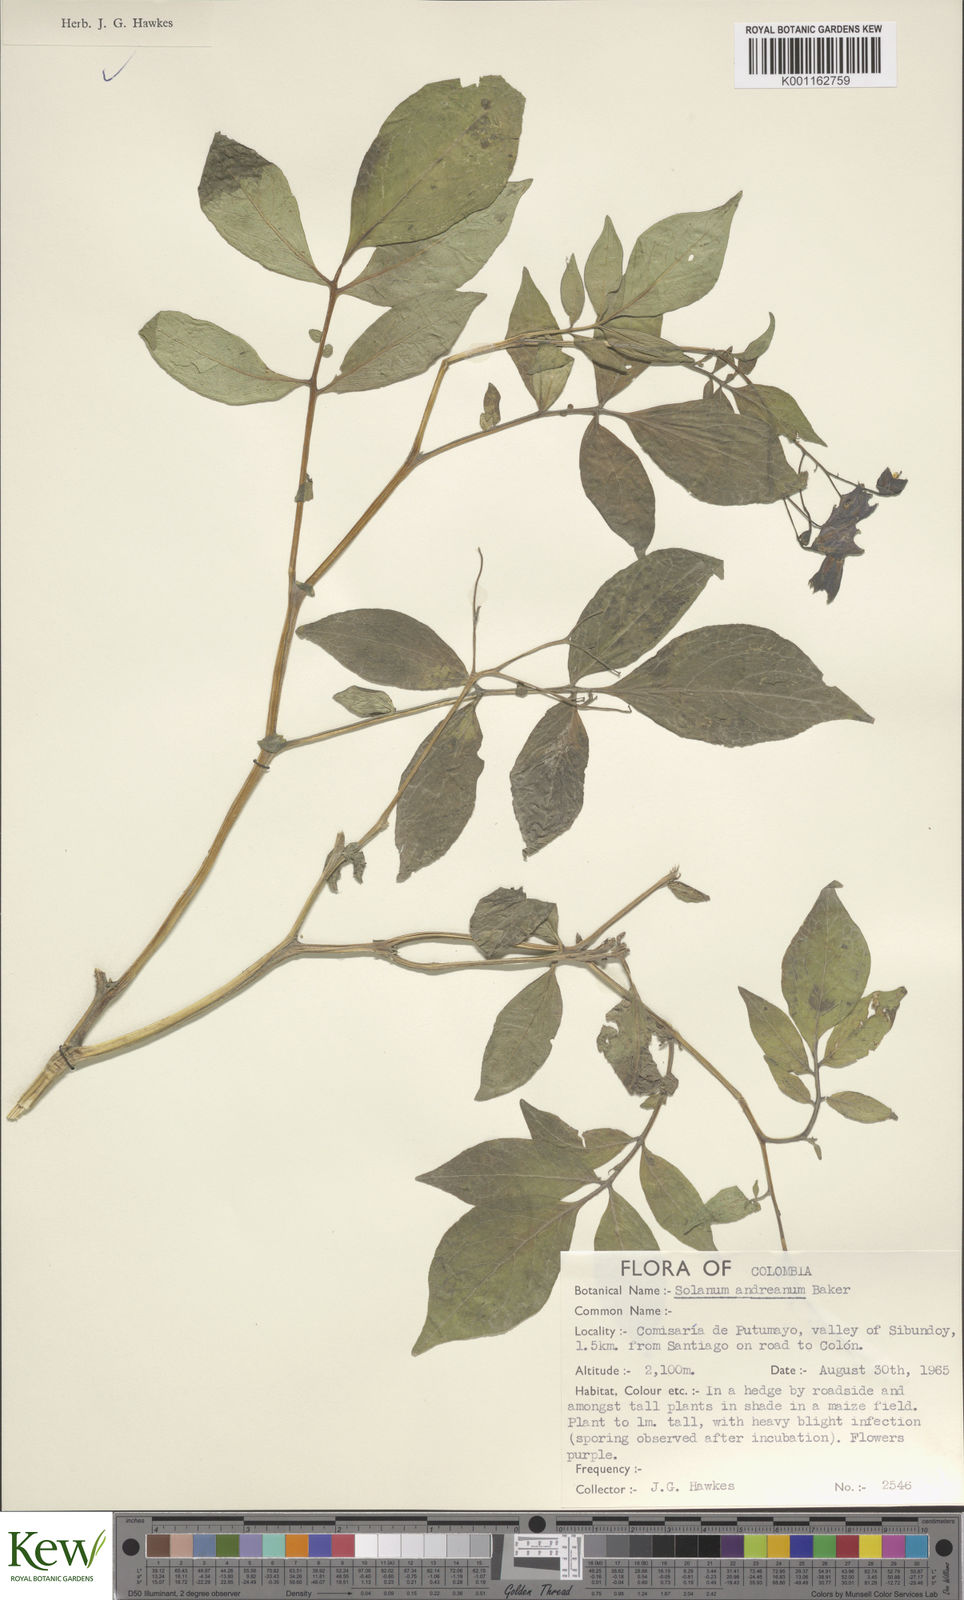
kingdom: Plantae
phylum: Tracheophyta
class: Magnoliopsida
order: Solanales
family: Solanaceae
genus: Solanum
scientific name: Solanum andreanum
